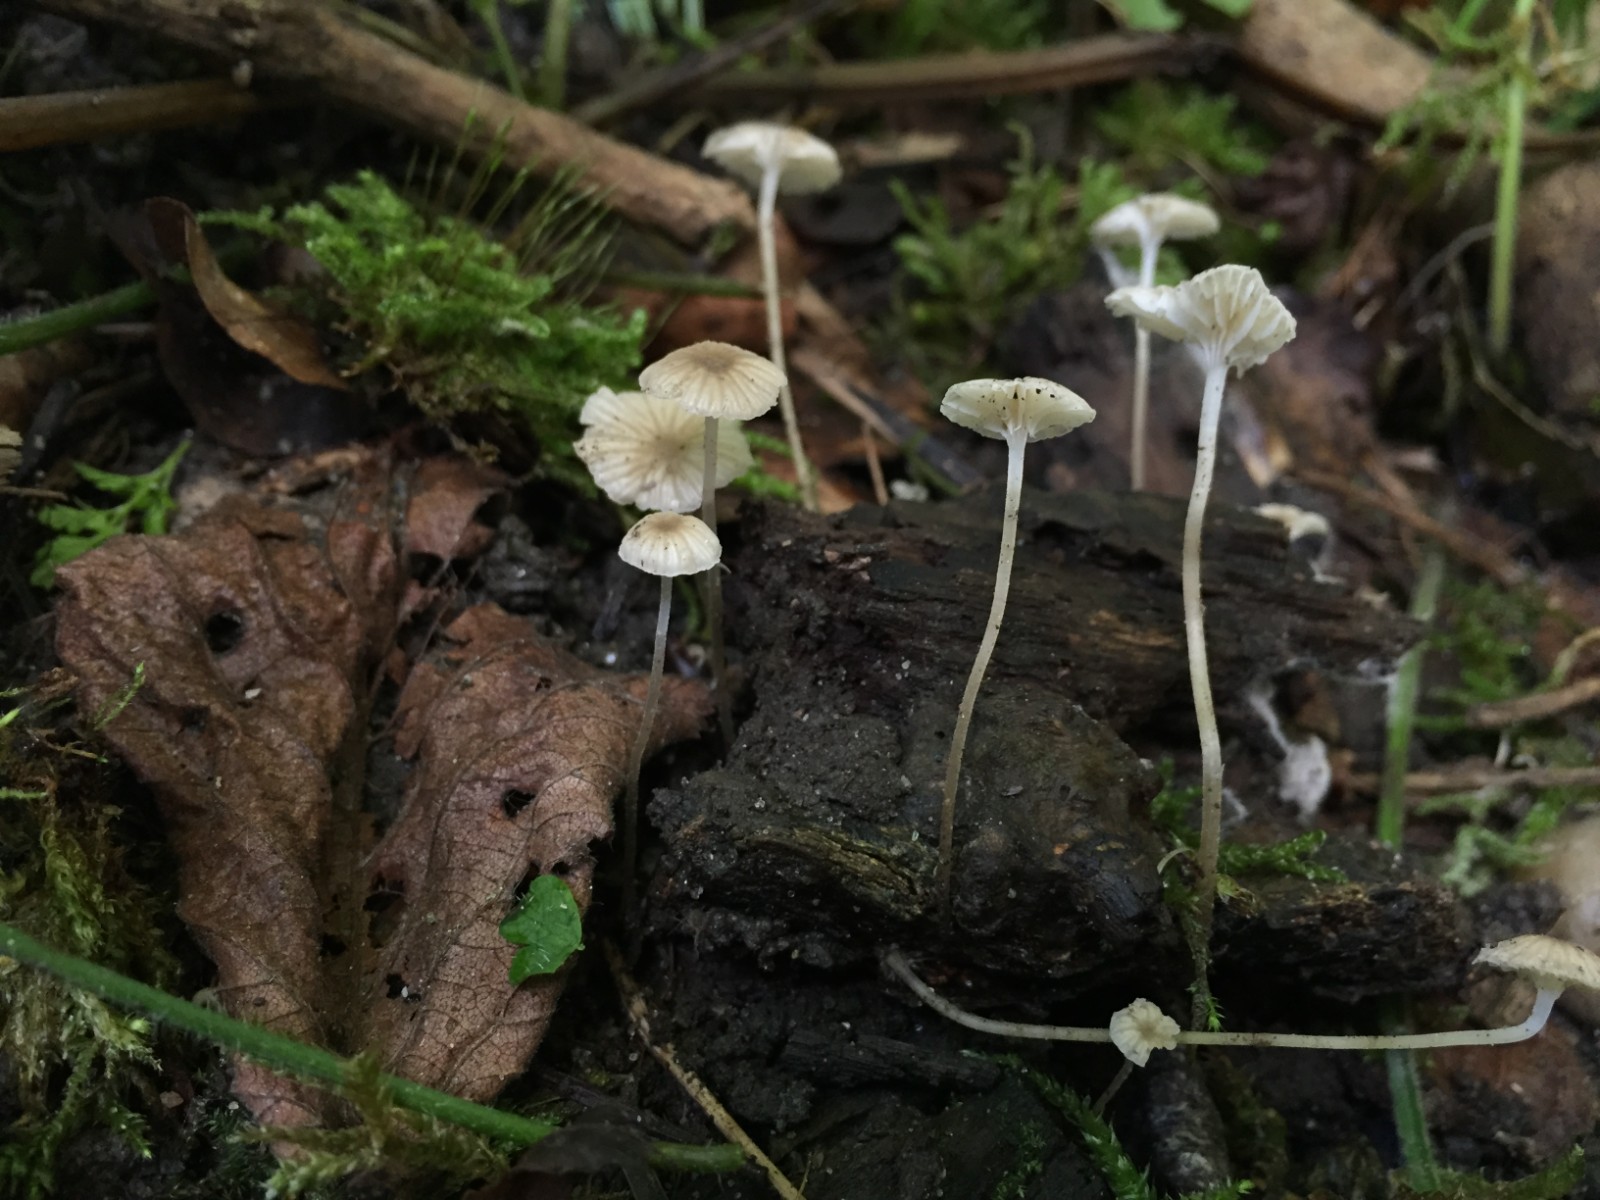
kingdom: Fungi
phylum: Basidiomycota
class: Agaricomycetes
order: Agaricales
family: Porotheleaceae
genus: Phloeomana
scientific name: Phloeomana speirea
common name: kvist-huesvamp
